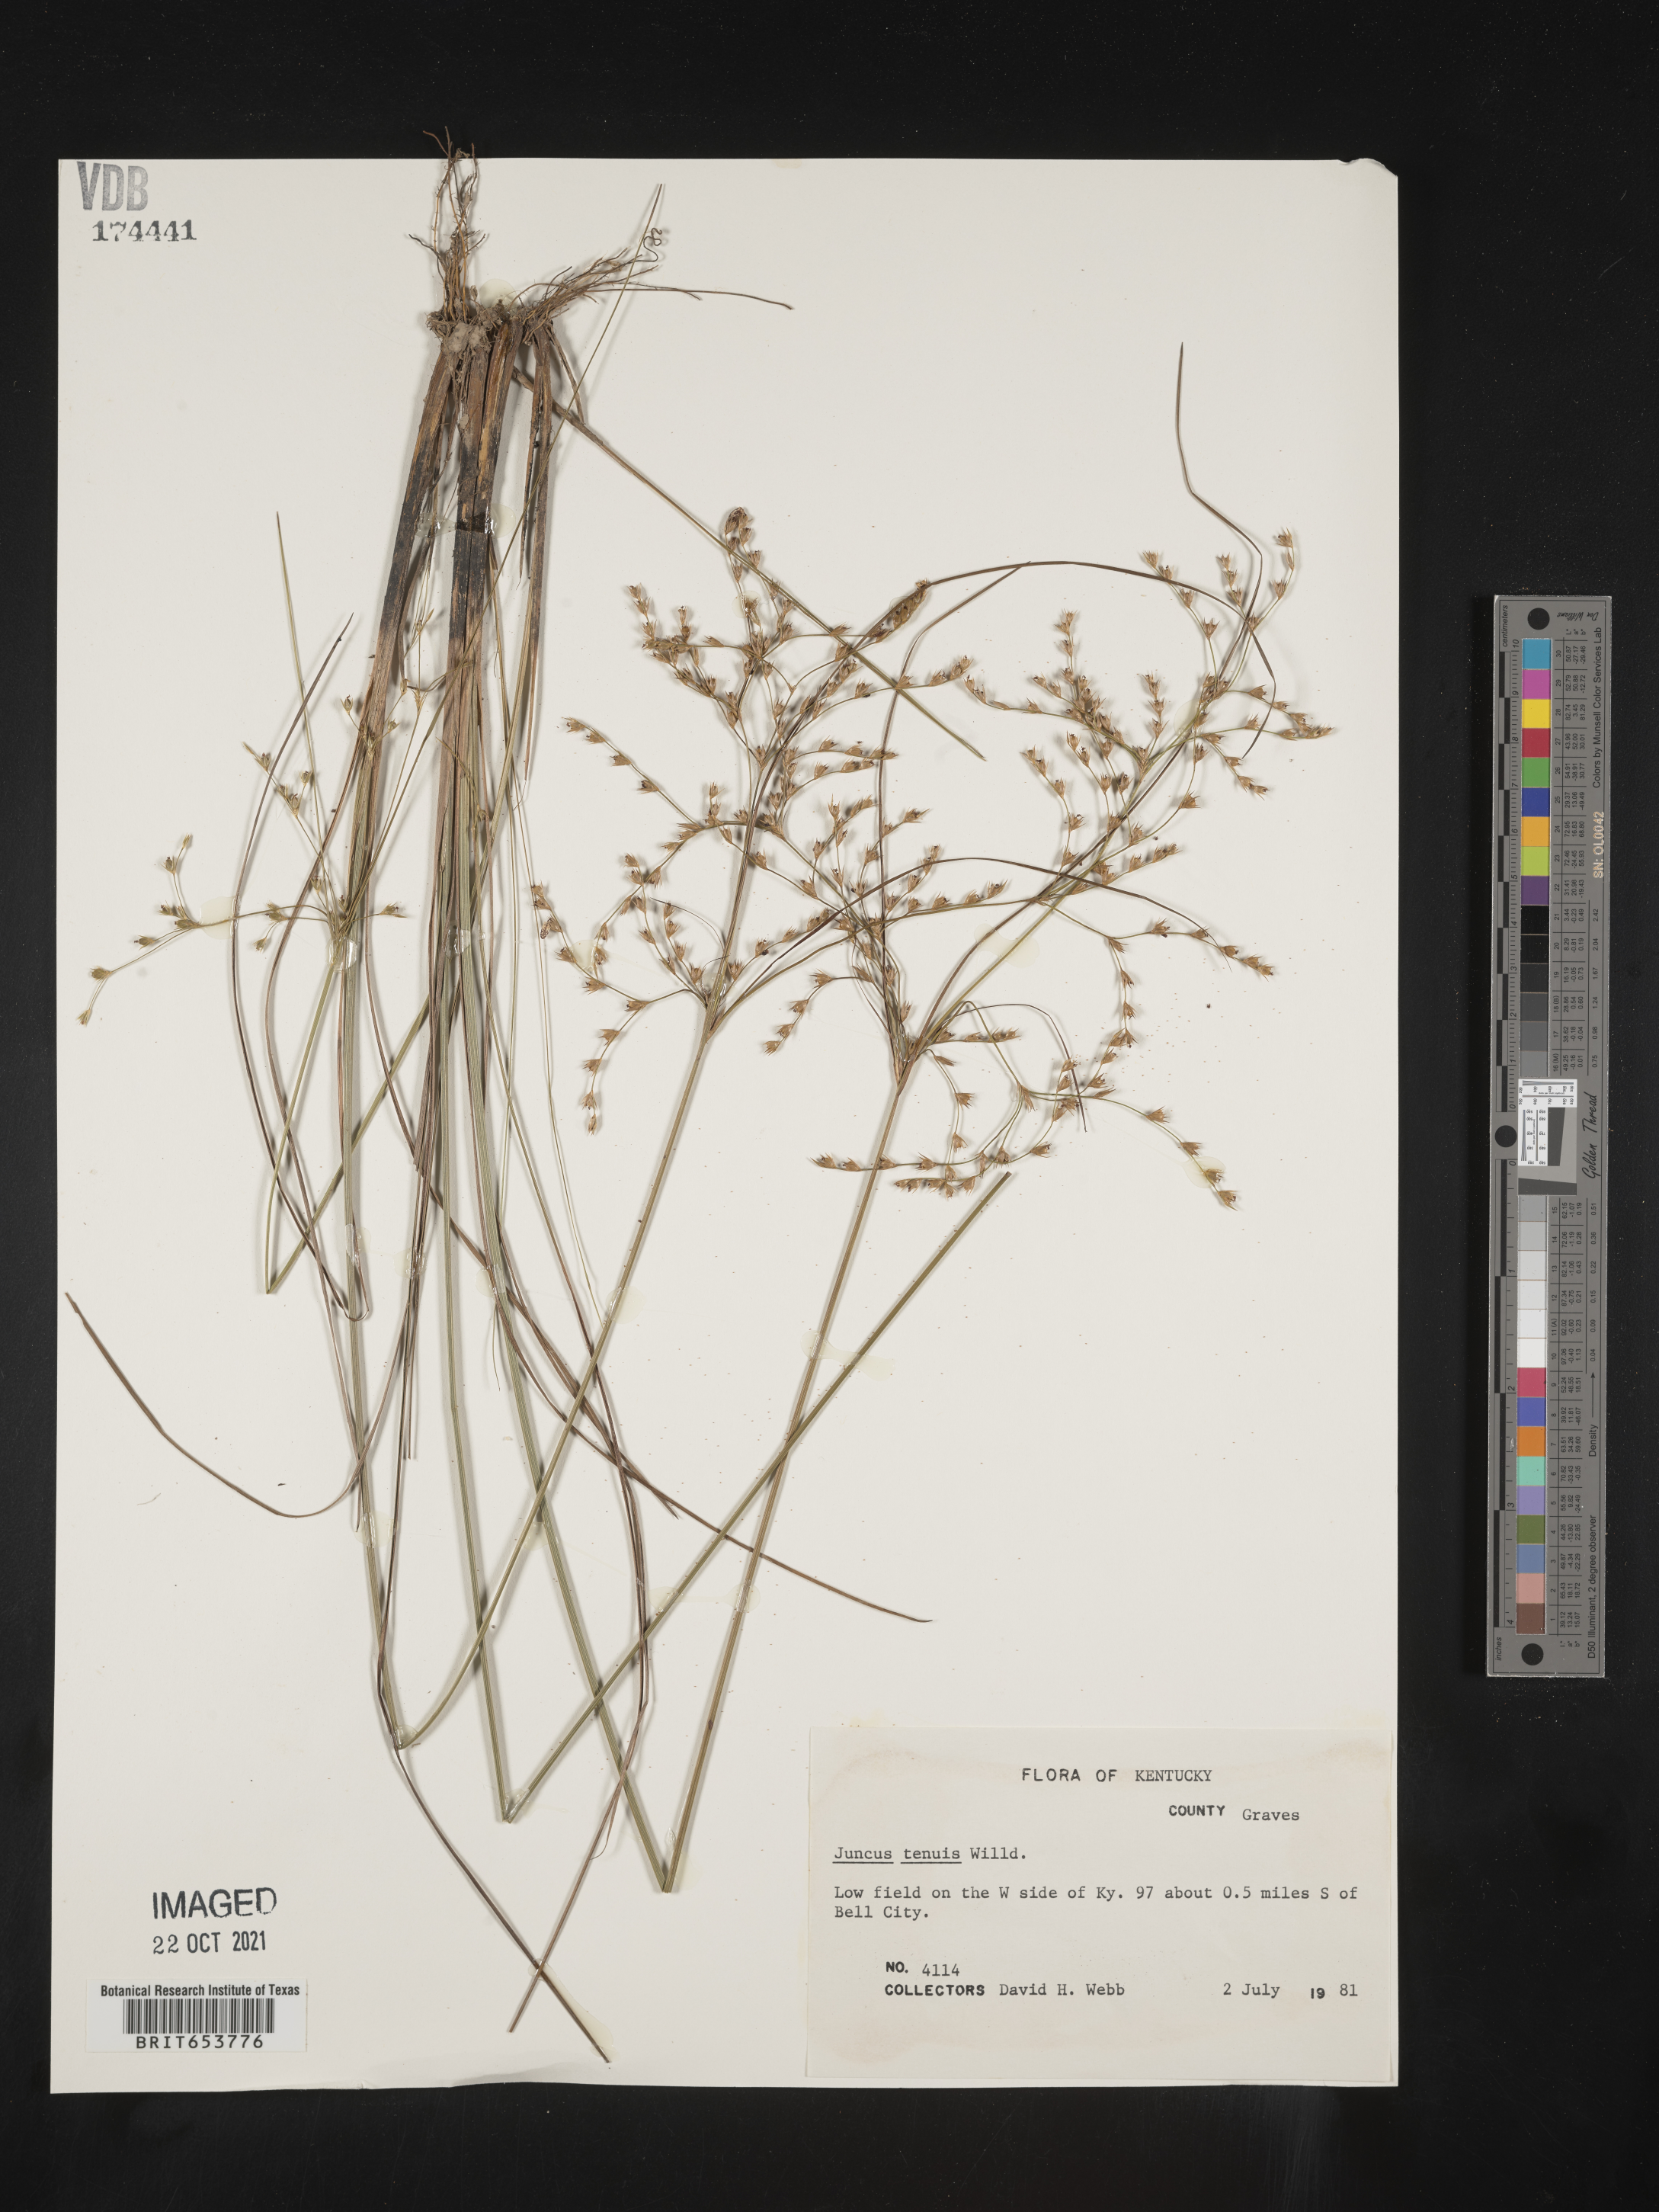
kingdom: Plantae
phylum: Tracheophyta
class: Liliopsida
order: Poales
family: Juncaceae
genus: Juncus
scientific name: Juncus tenuis
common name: Slender rush
